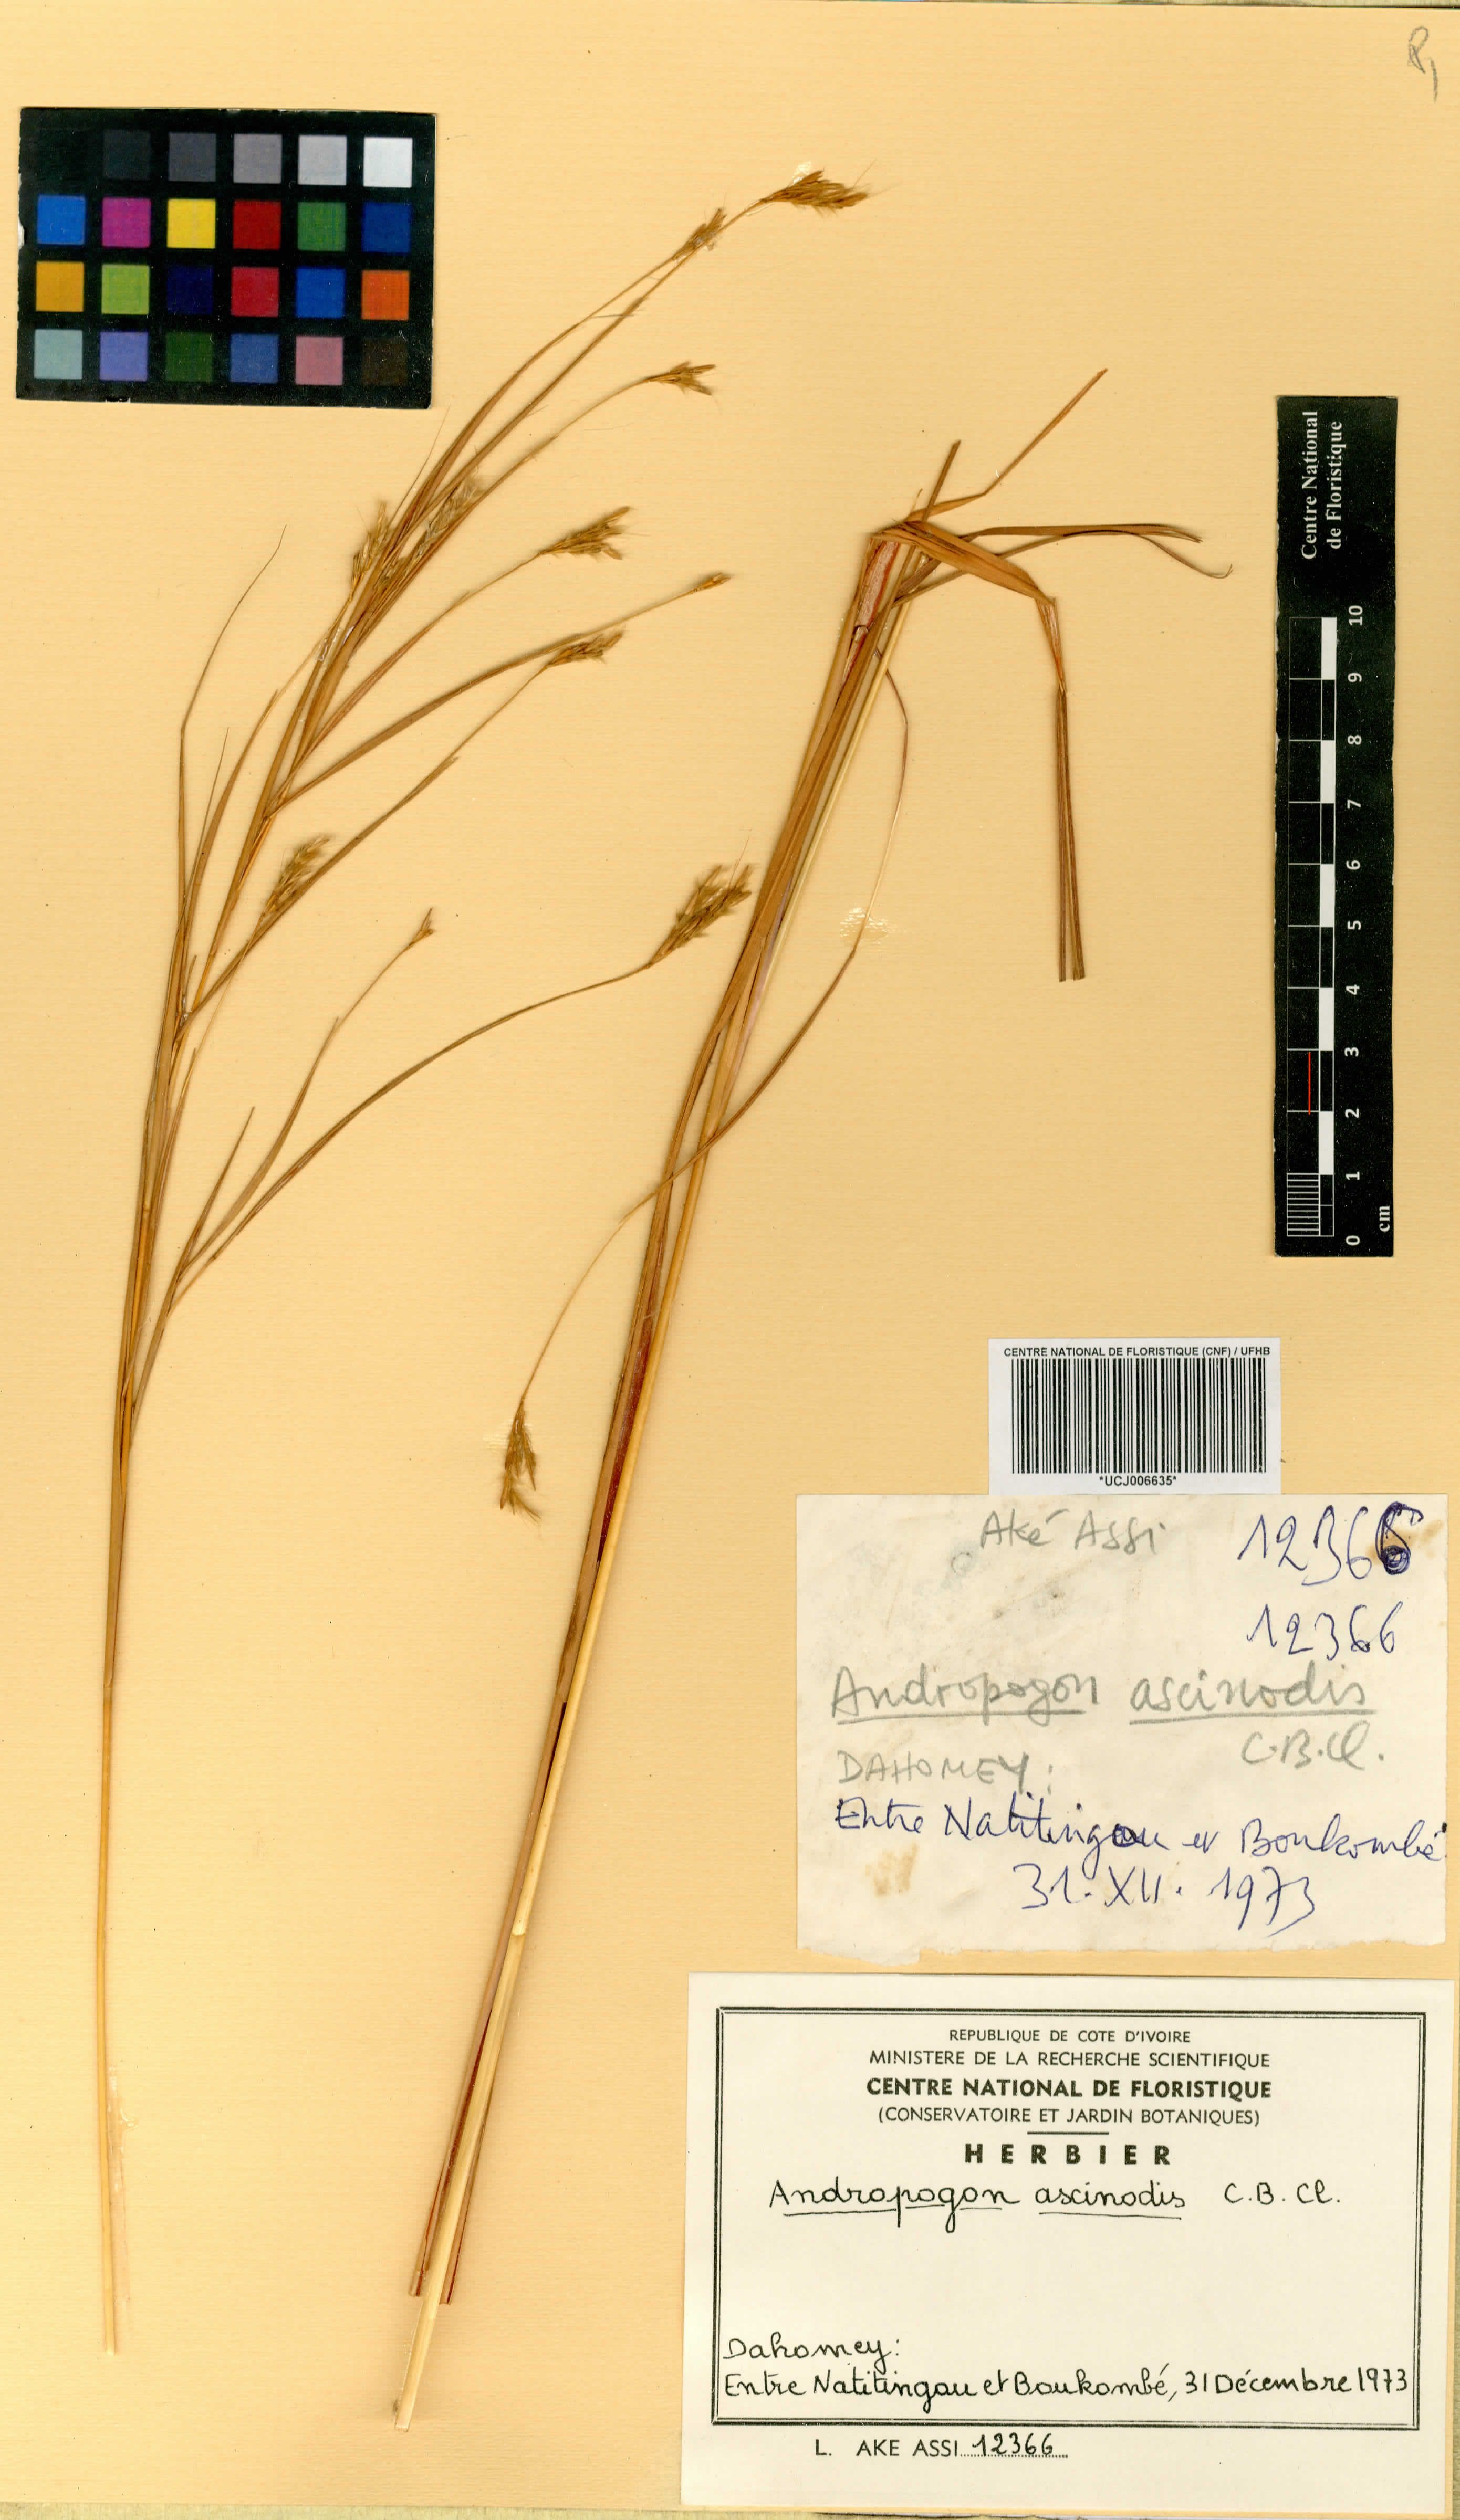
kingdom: Plantae
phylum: Tracheophyta
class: Liliopsida
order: Poales
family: Poaceae
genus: Andropogon
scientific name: Andropogon chinensis
